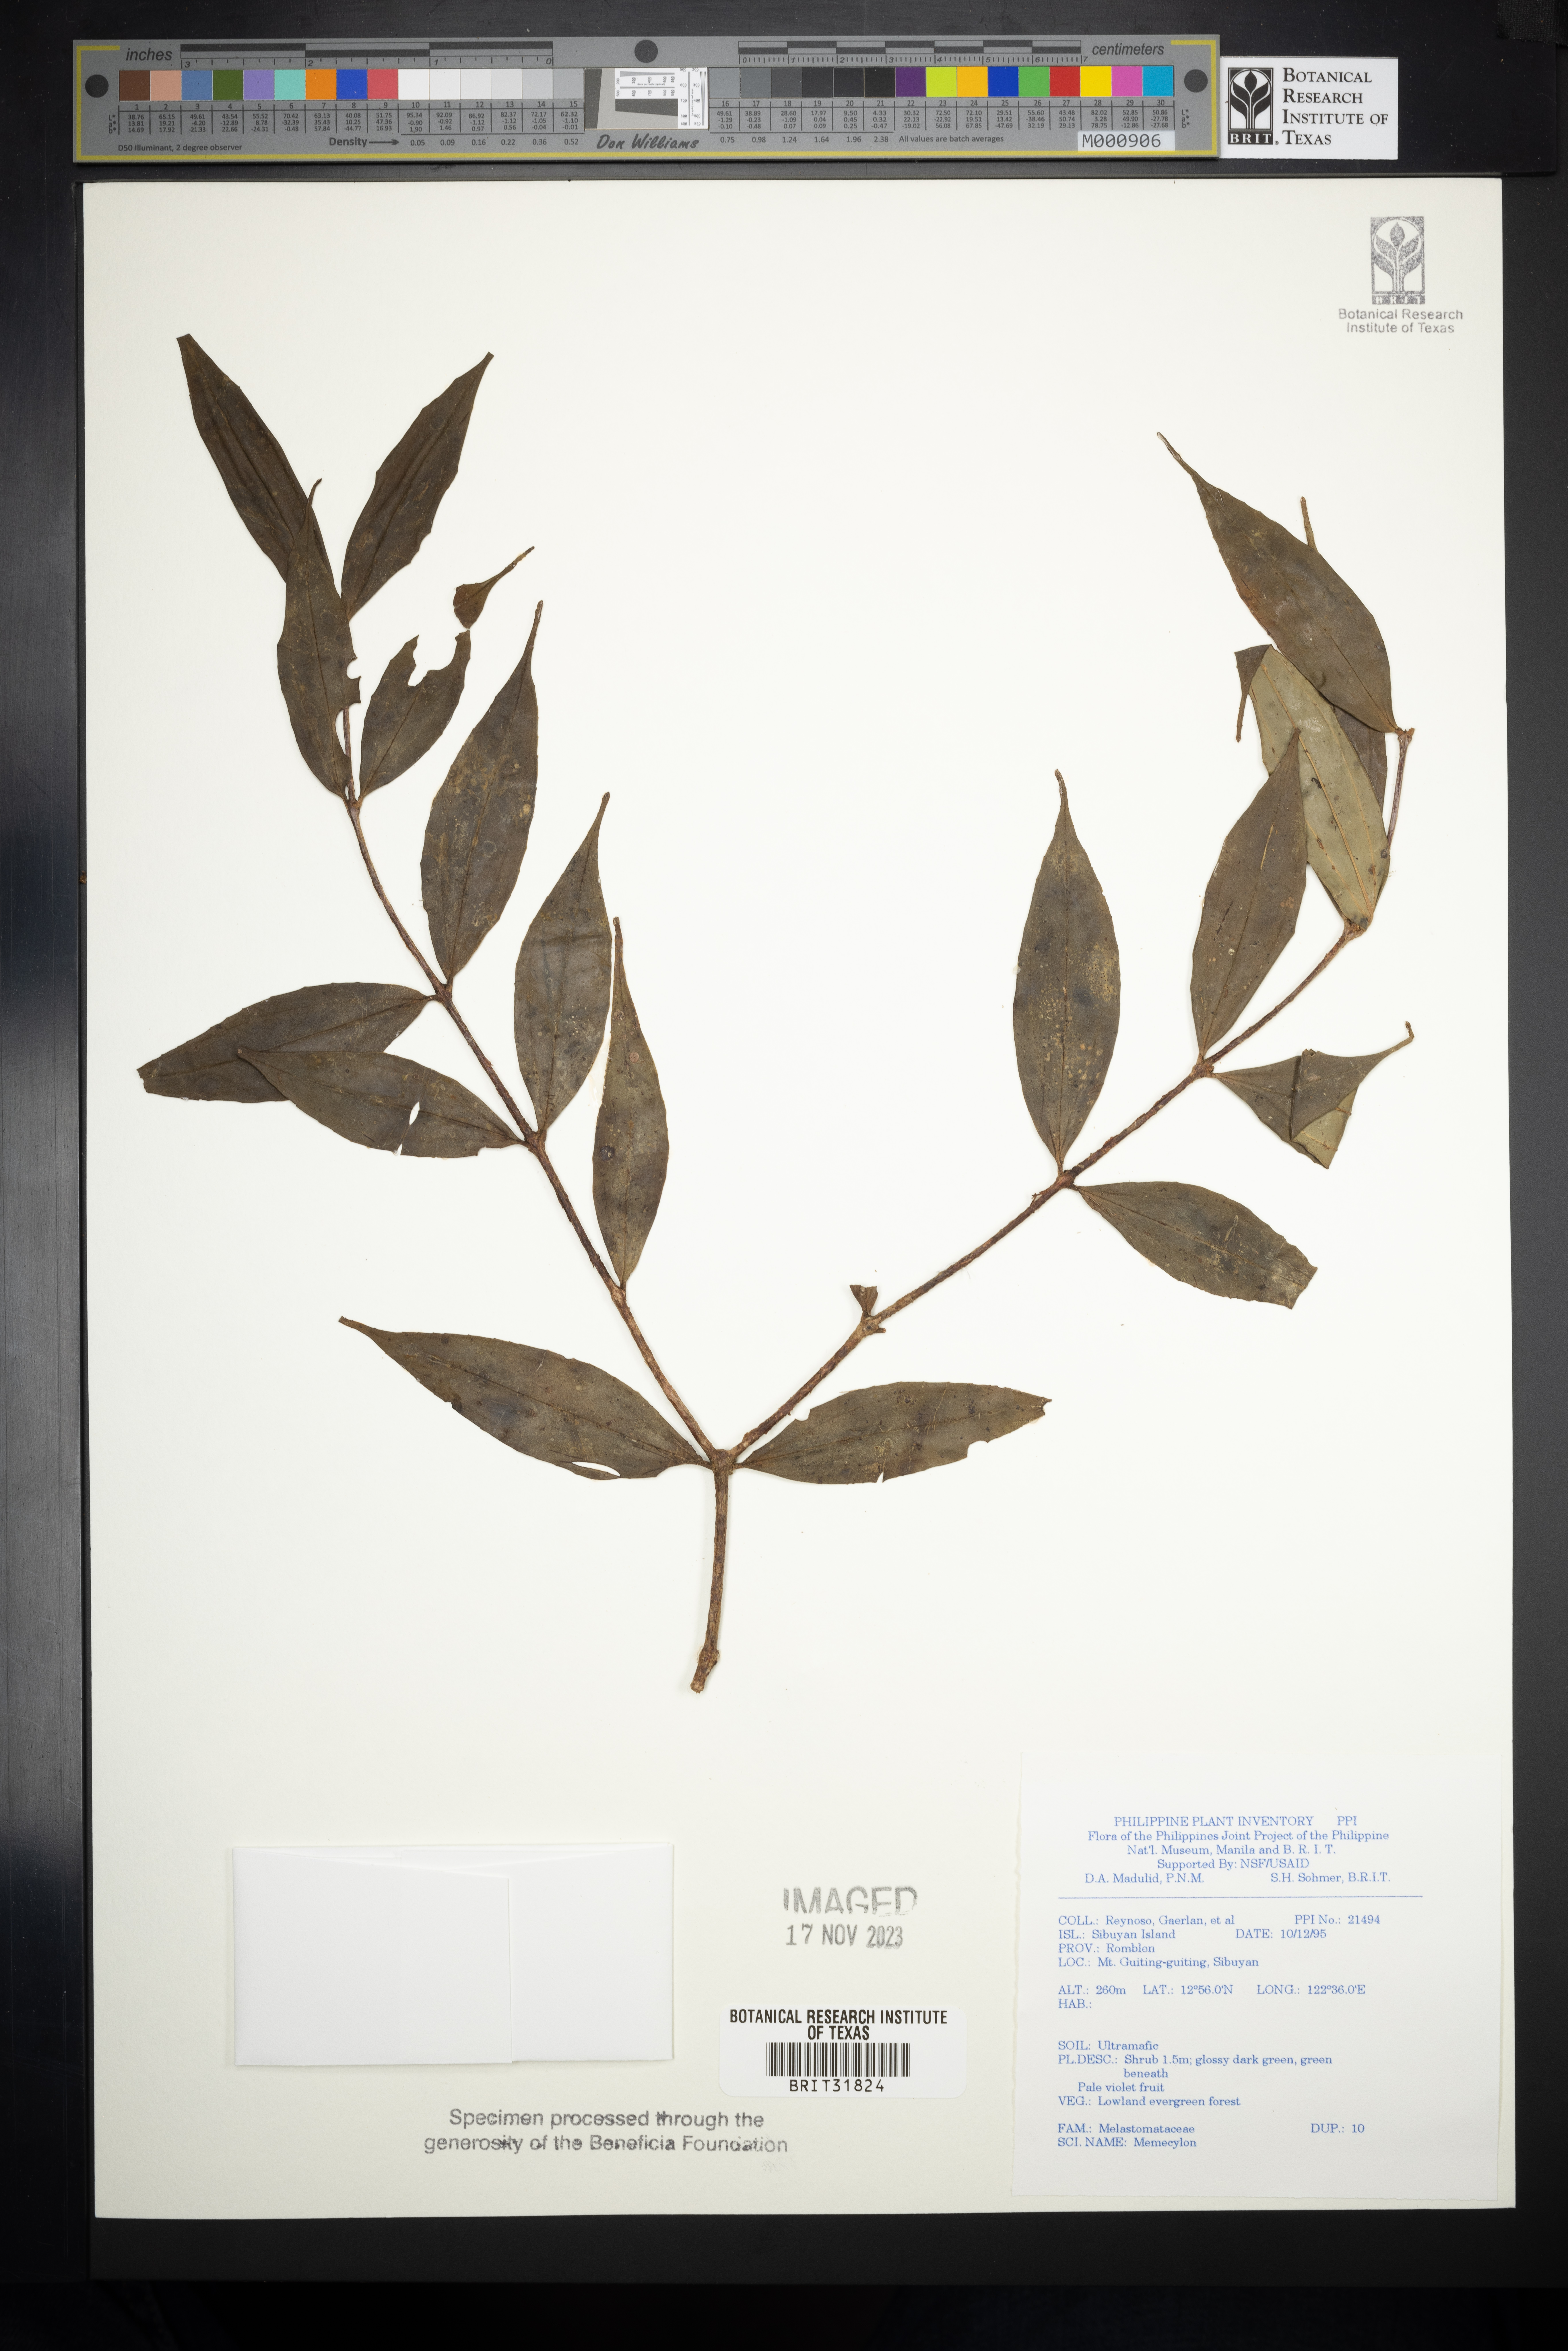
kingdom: Plantae
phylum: Tracheophyta
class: Magnoliopsida
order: Myrtales
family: Melastomataceae
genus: Memecylon
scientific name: Memecylon
